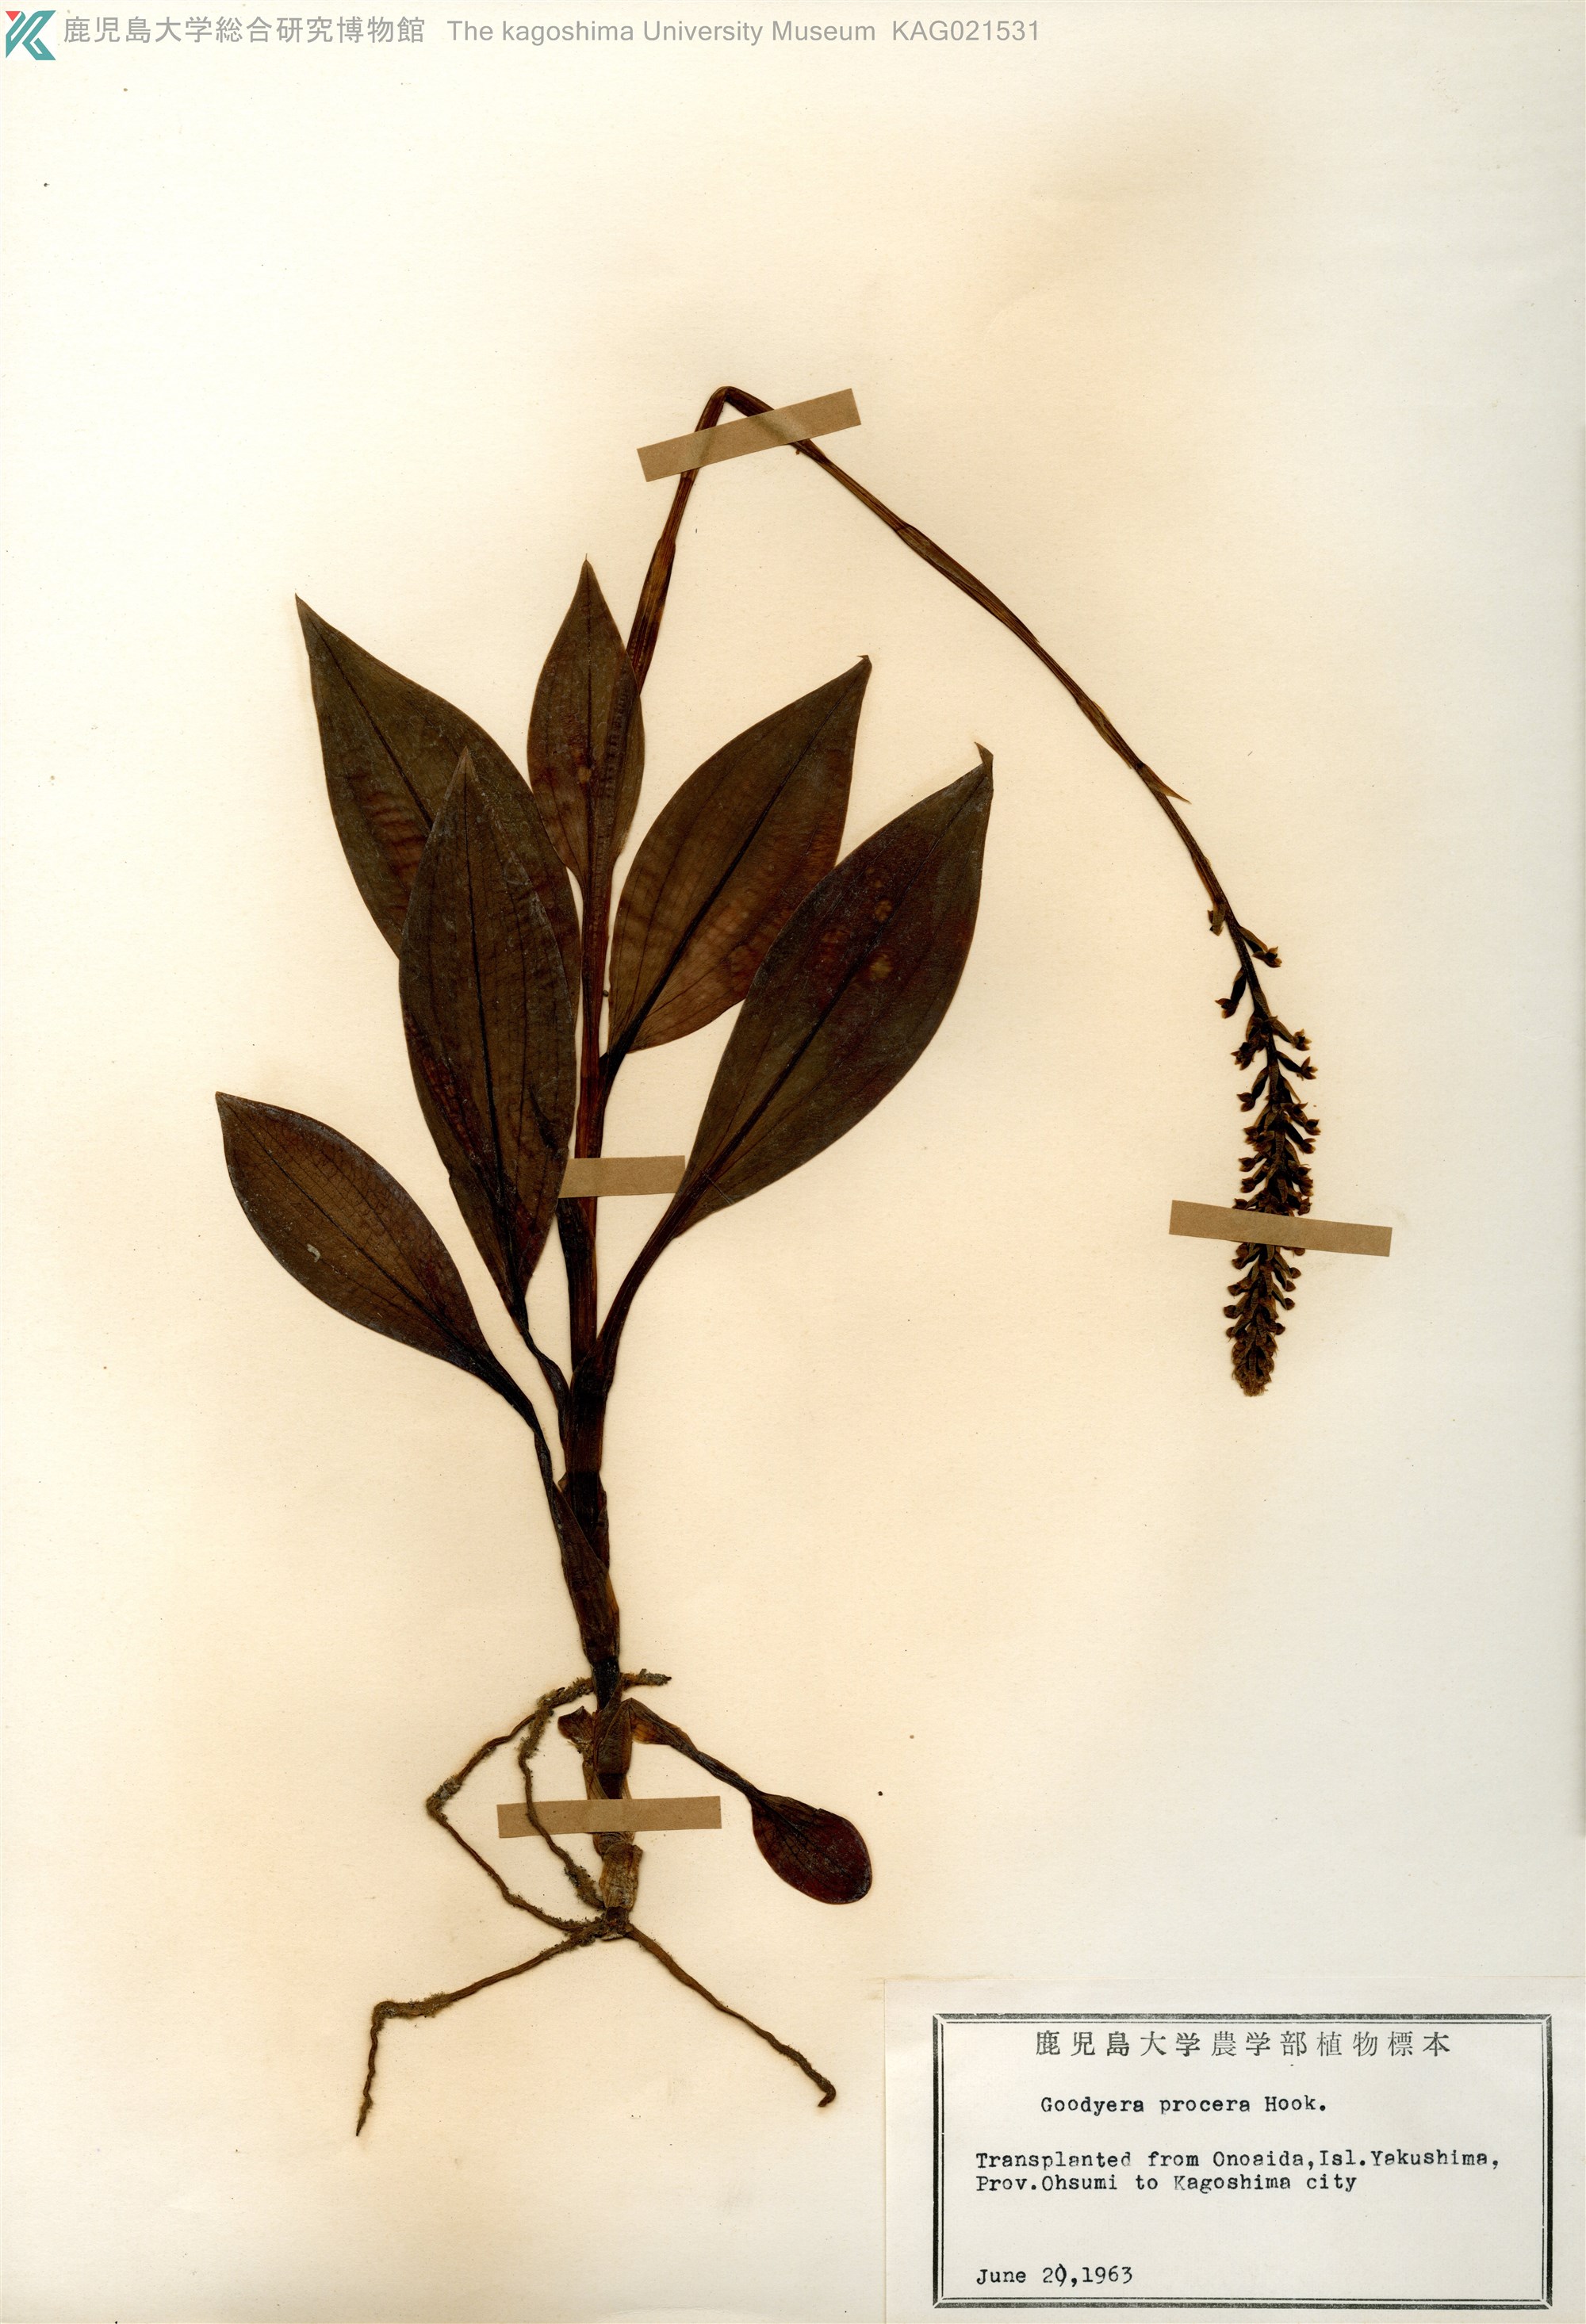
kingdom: Plantae
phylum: Tracheophyta
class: Liliopsida
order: Asparagales
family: Orchidaceae
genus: Goodyera
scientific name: Goodyera procera
